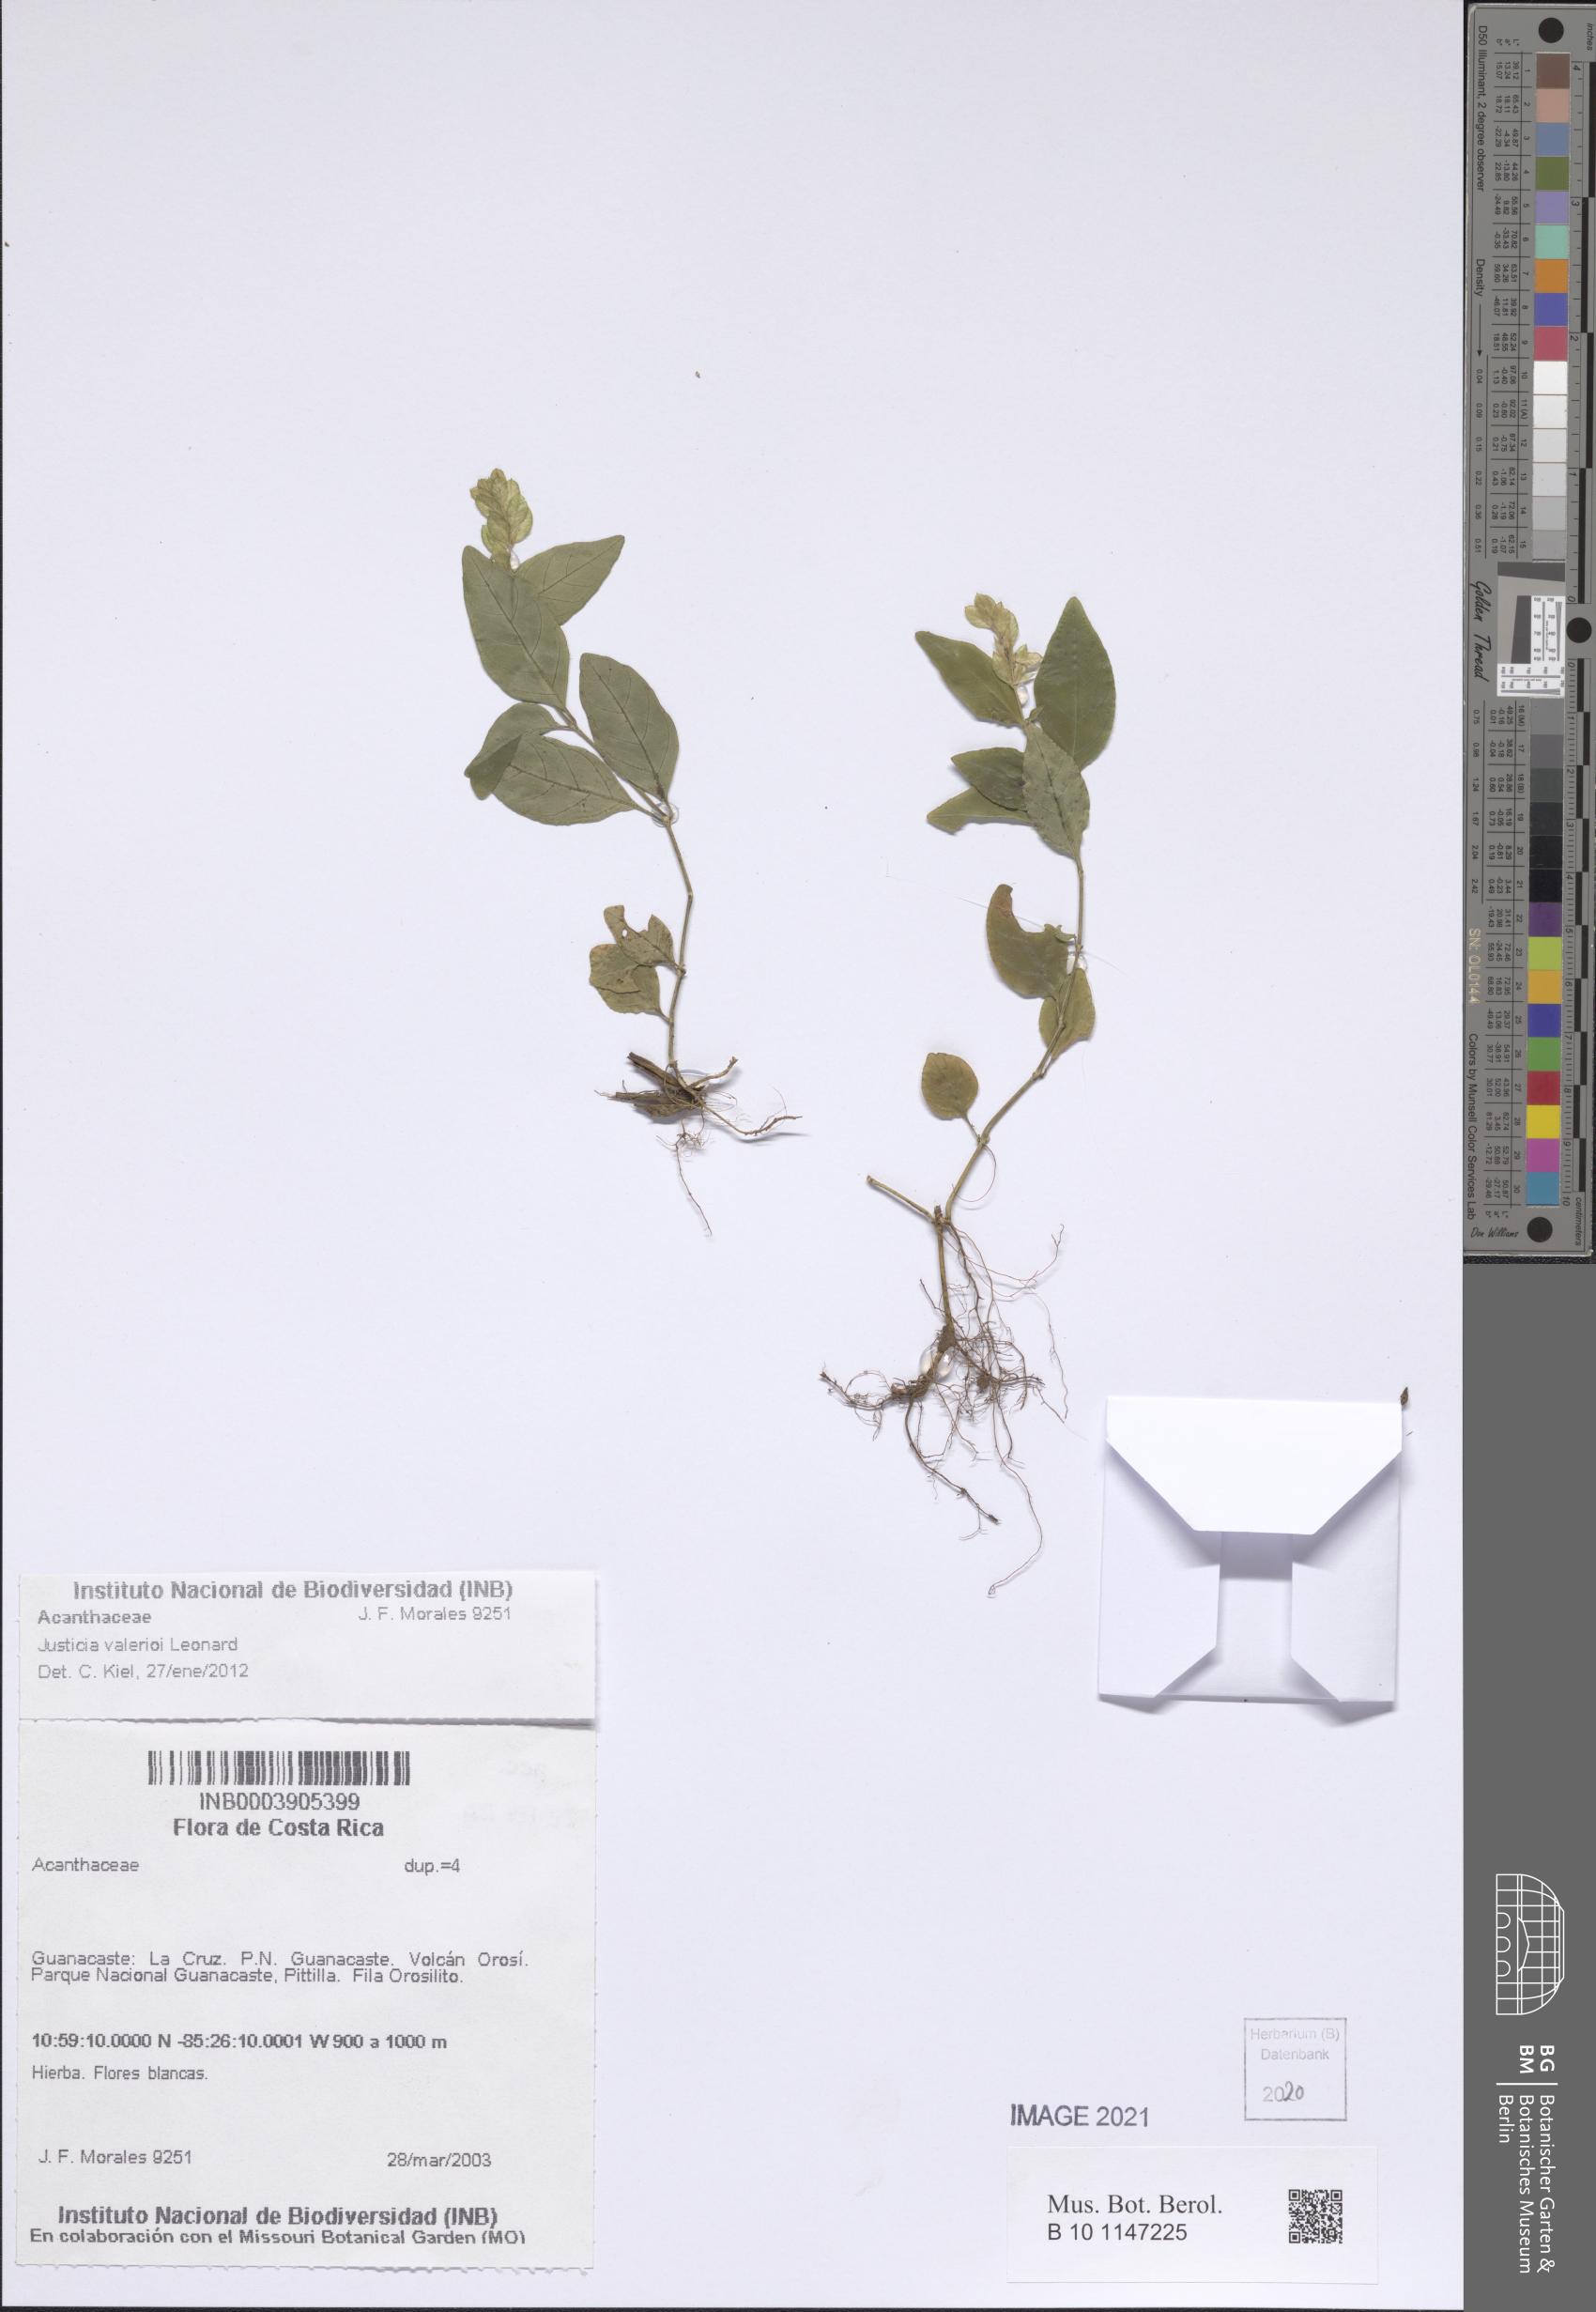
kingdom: Plantae
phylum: Tracheophyta
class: Magnoliopsida
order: Lamiales
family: Acanthaceae
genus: Justicia
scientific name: Justicia valerioi
